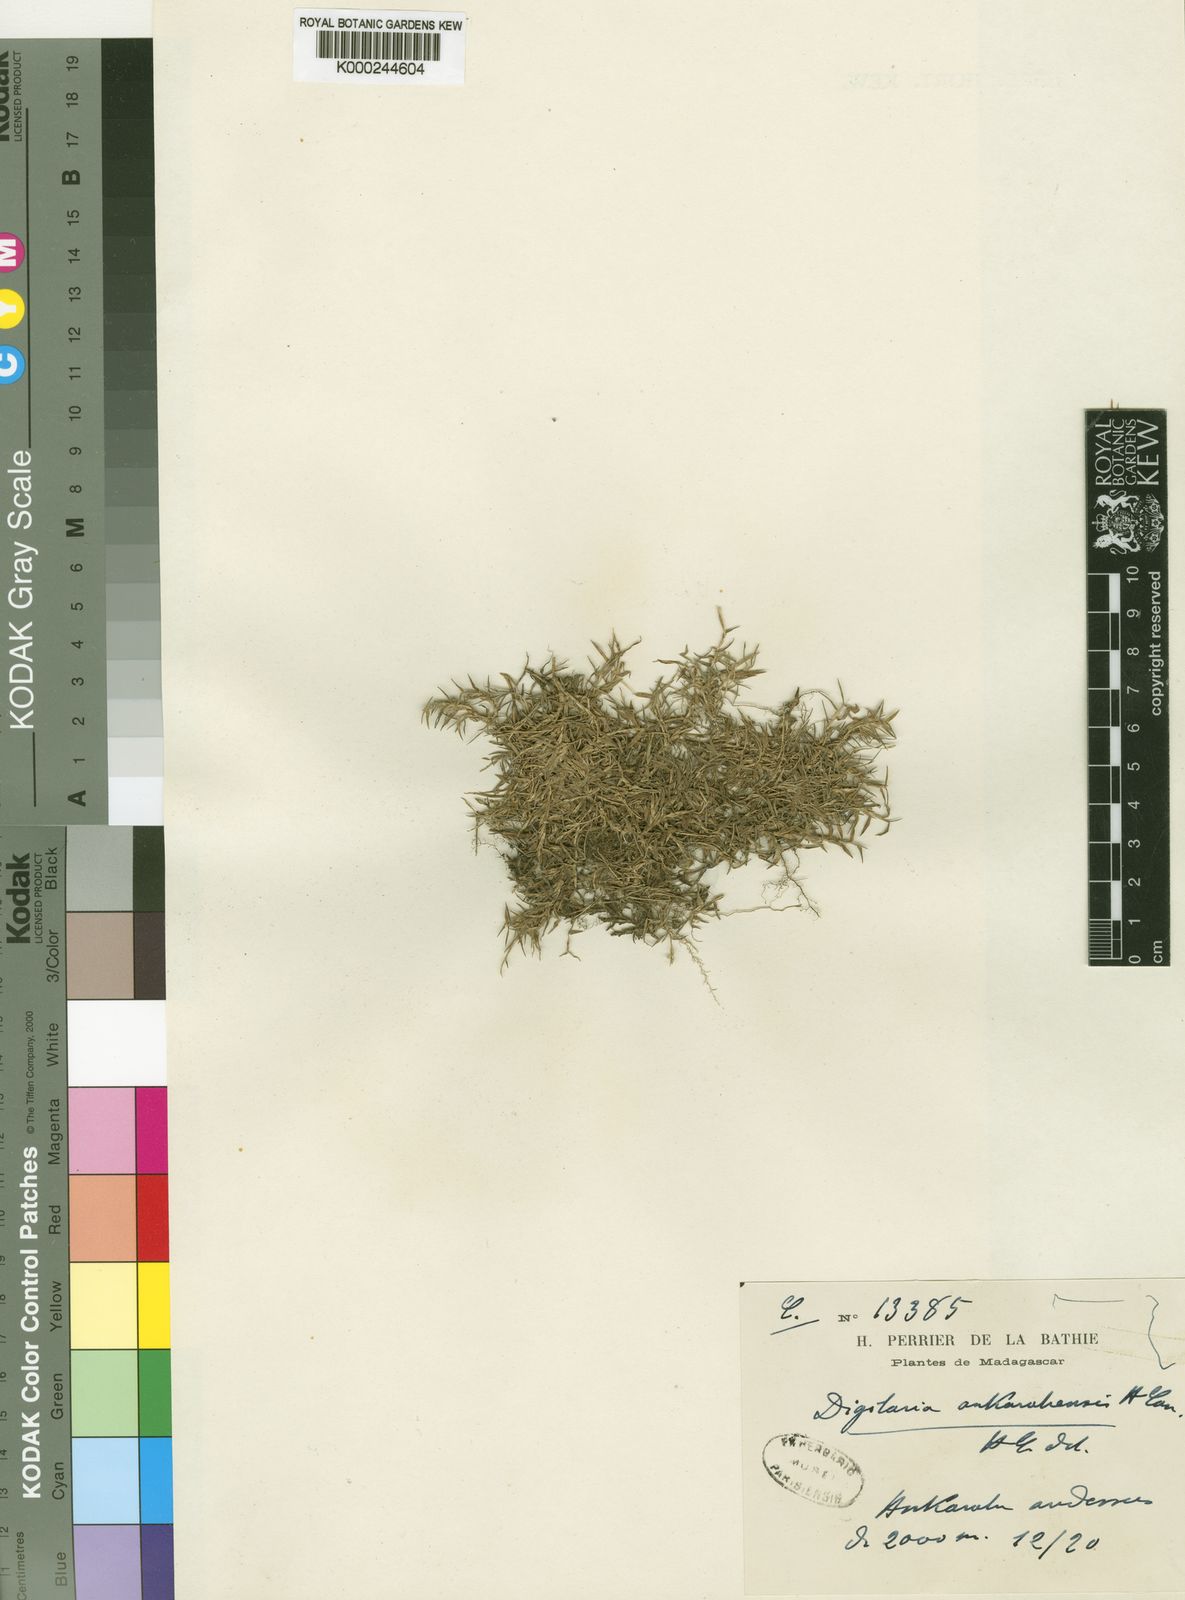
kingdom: Plantae
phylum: Tracheophyta
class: Liliopsida
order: Poales
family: Poaceae
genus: Digitaria
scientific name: Digitaria ankaratrensis
